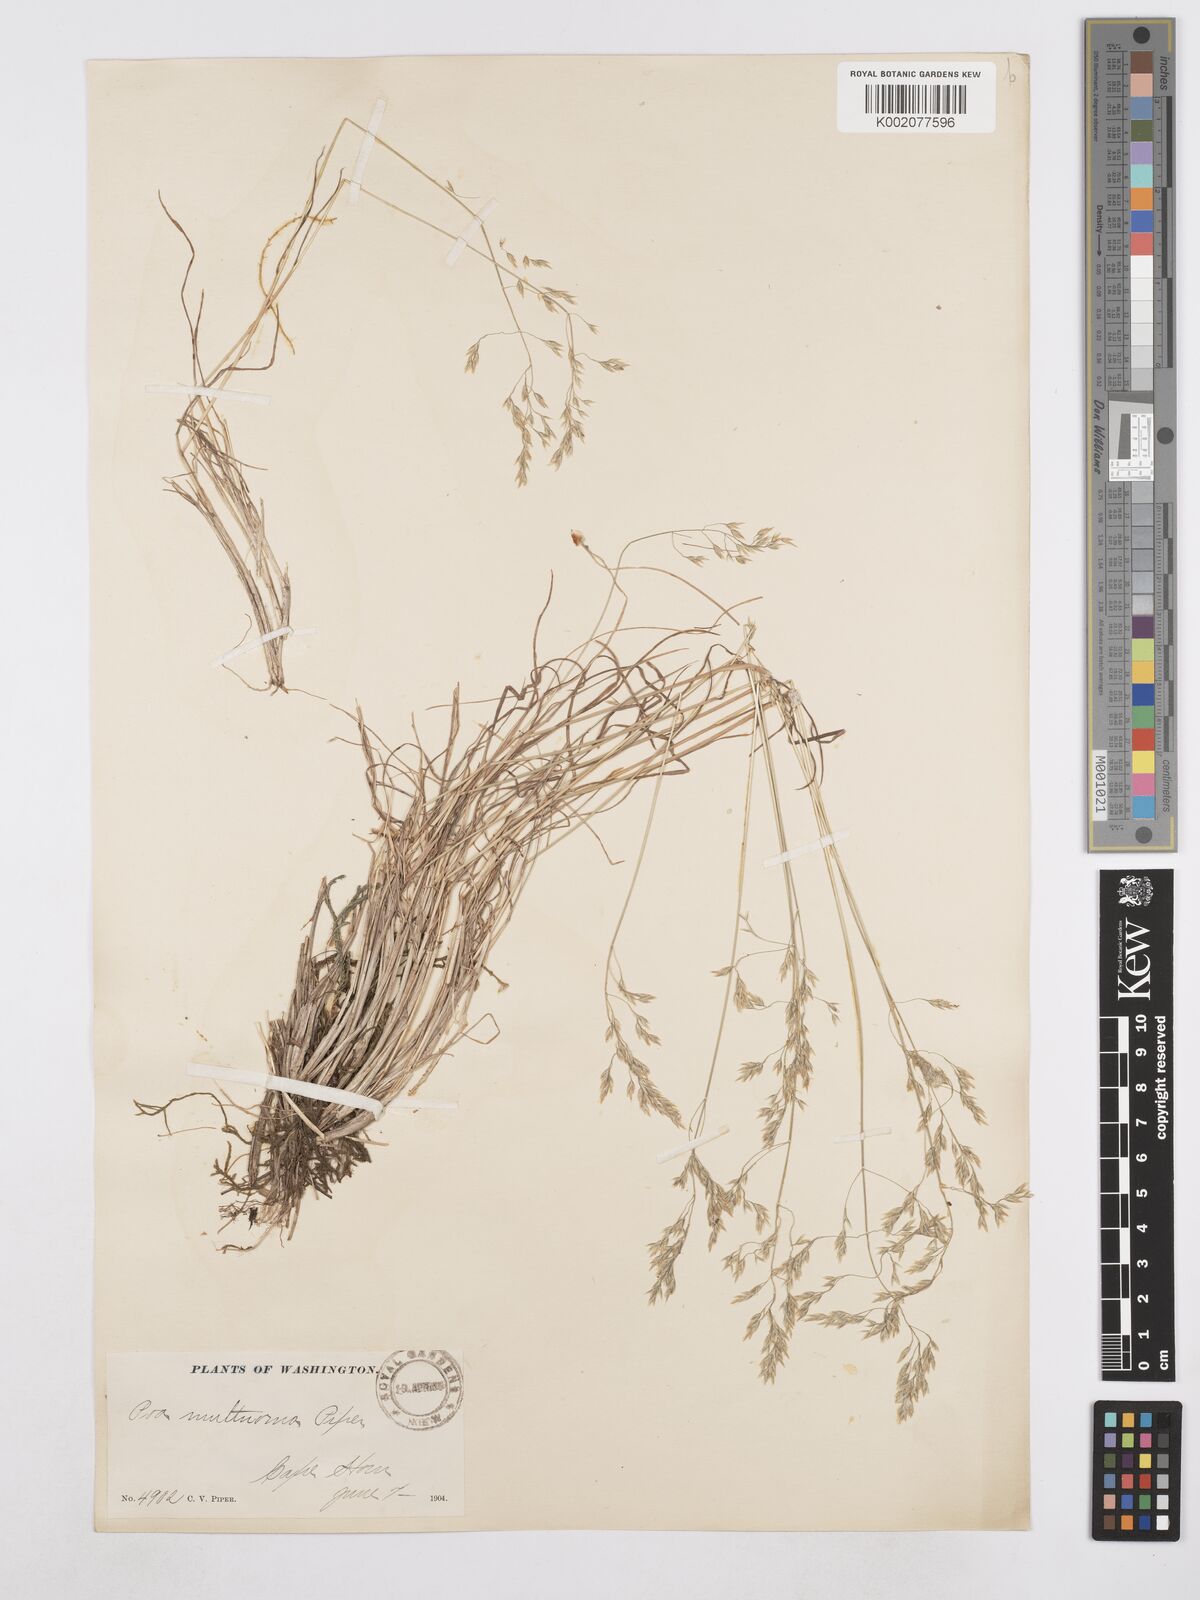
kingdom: Plantae
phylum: Tracheophyta
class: Liliopsida
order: Poales
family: Poaceae
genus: Poa
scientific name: Poa secunda
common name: Sandberg bluegrass
